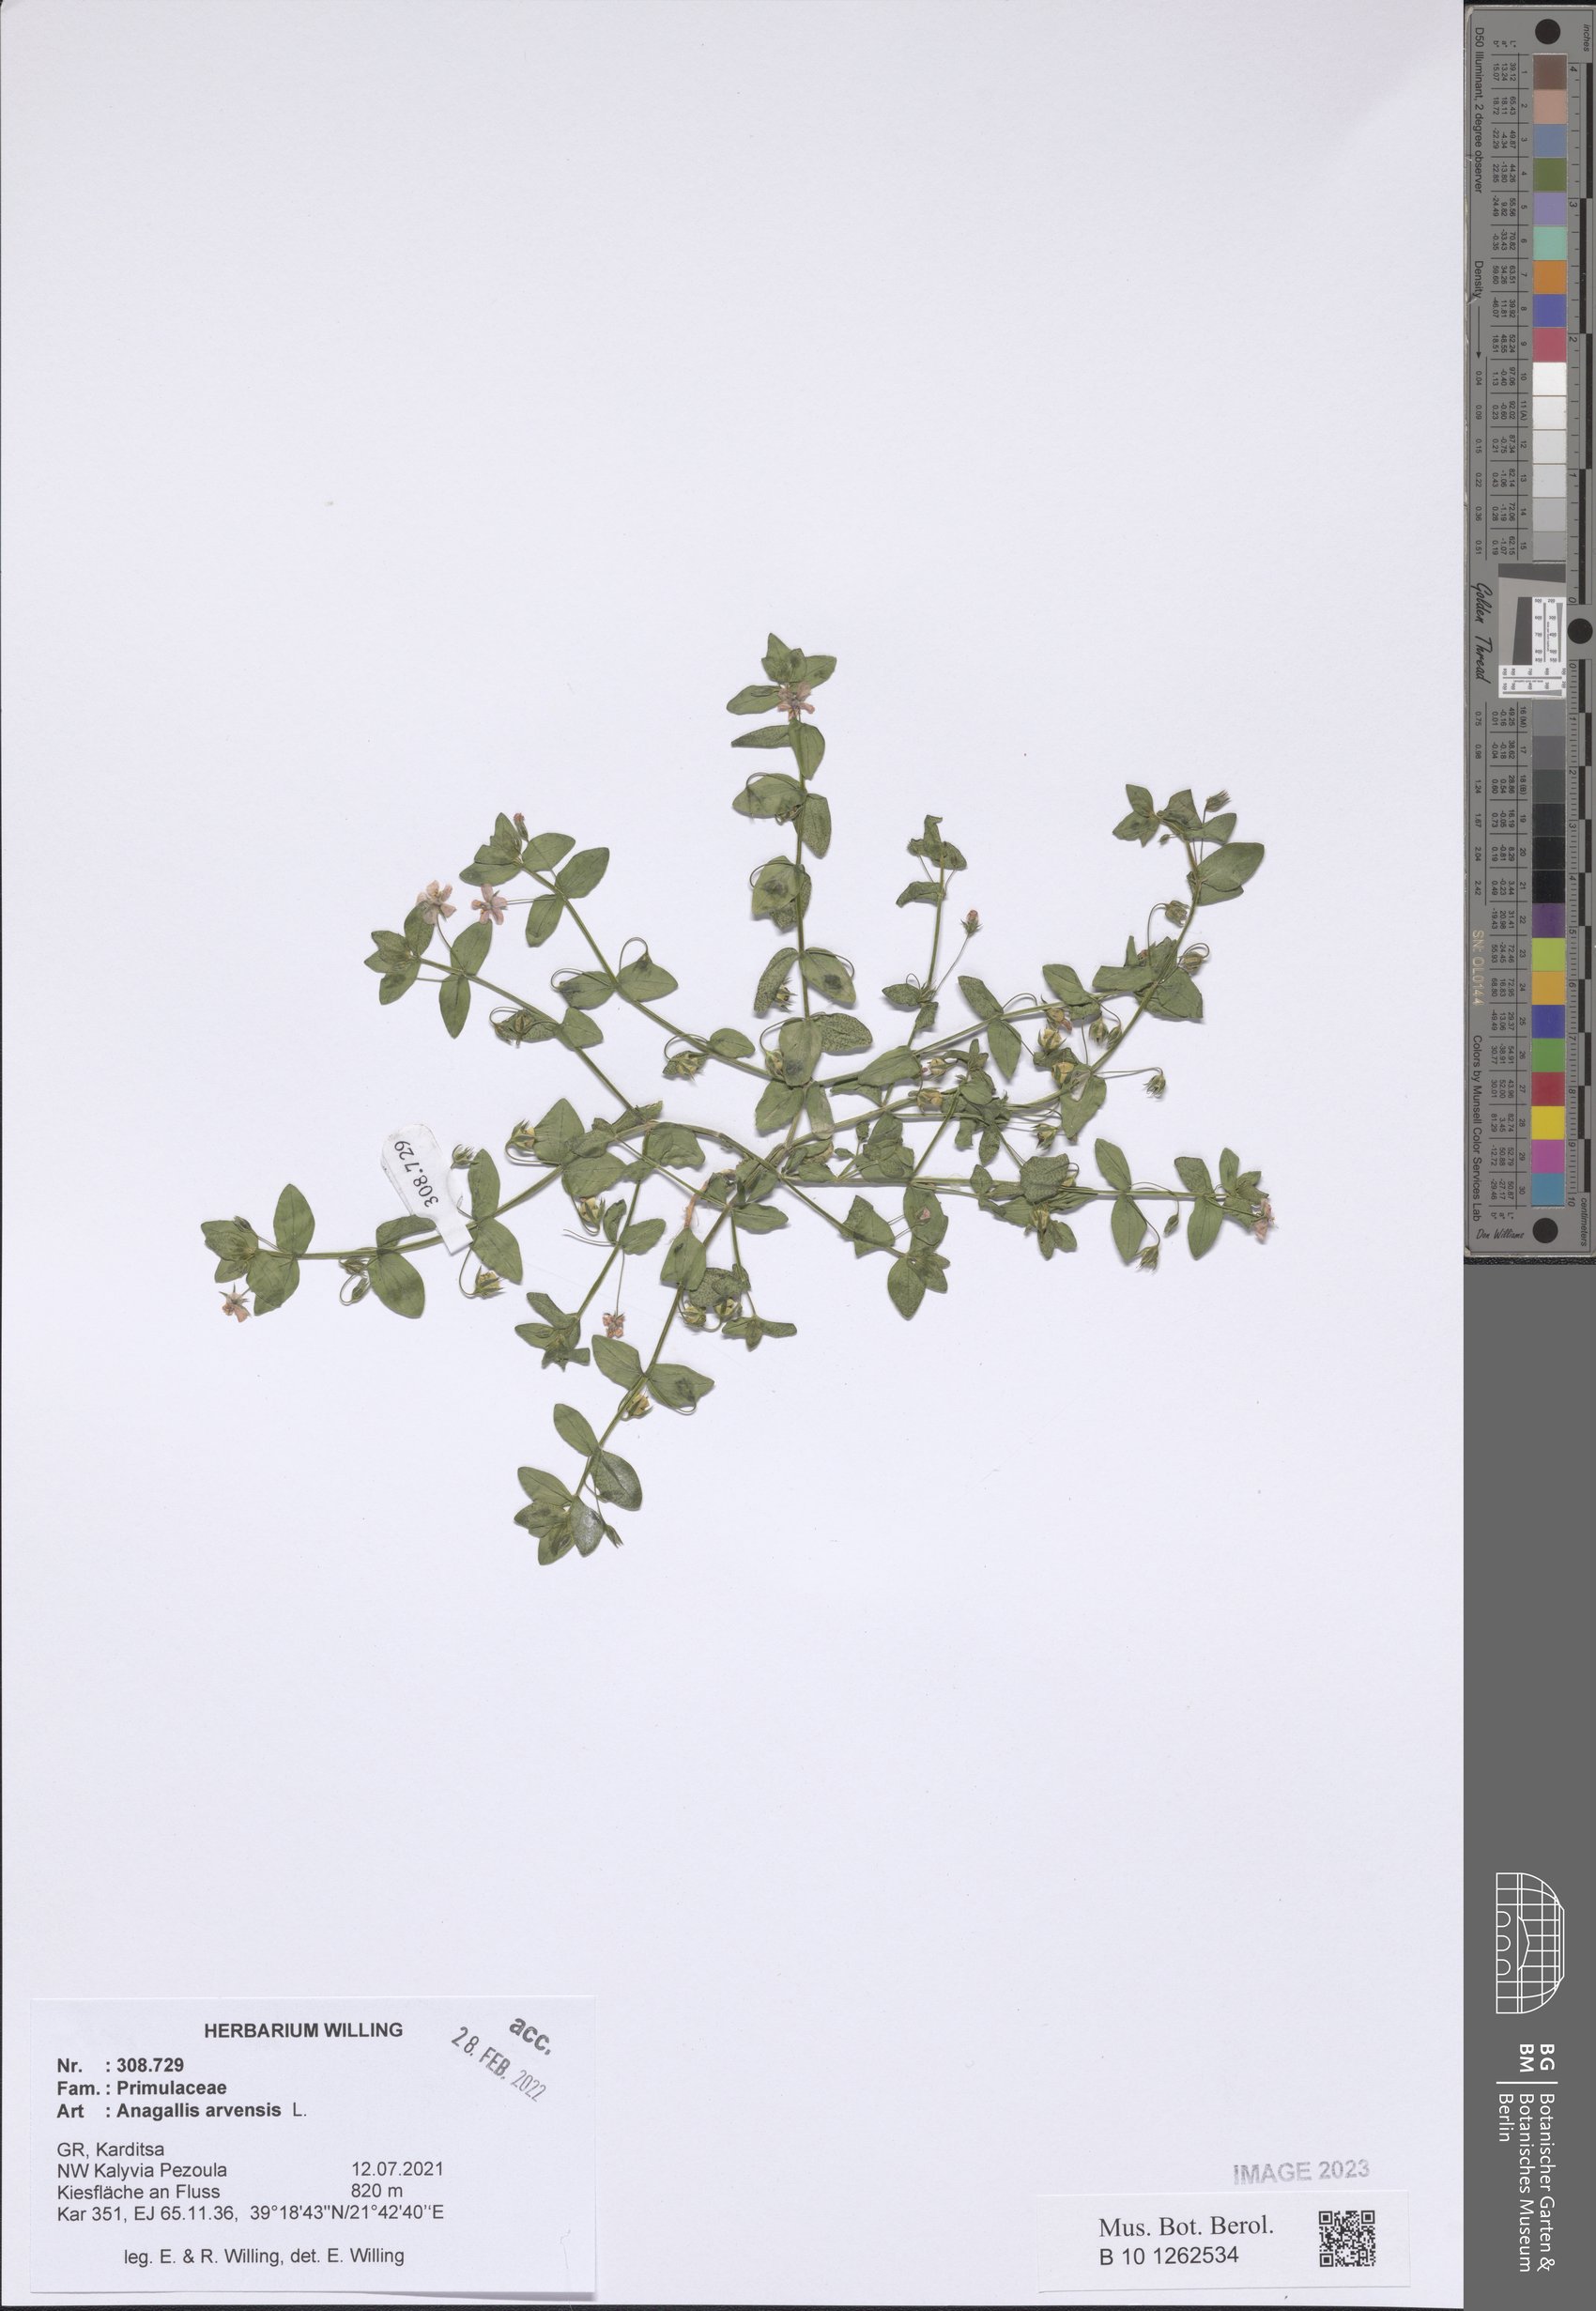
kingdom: Plantae
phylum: Tracheophyta
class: Magnoliopsida
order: Ericales
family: Primulaceae
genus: Lysimachia
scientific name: Lysimachia arvensis
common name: Scarlet pimpernel
